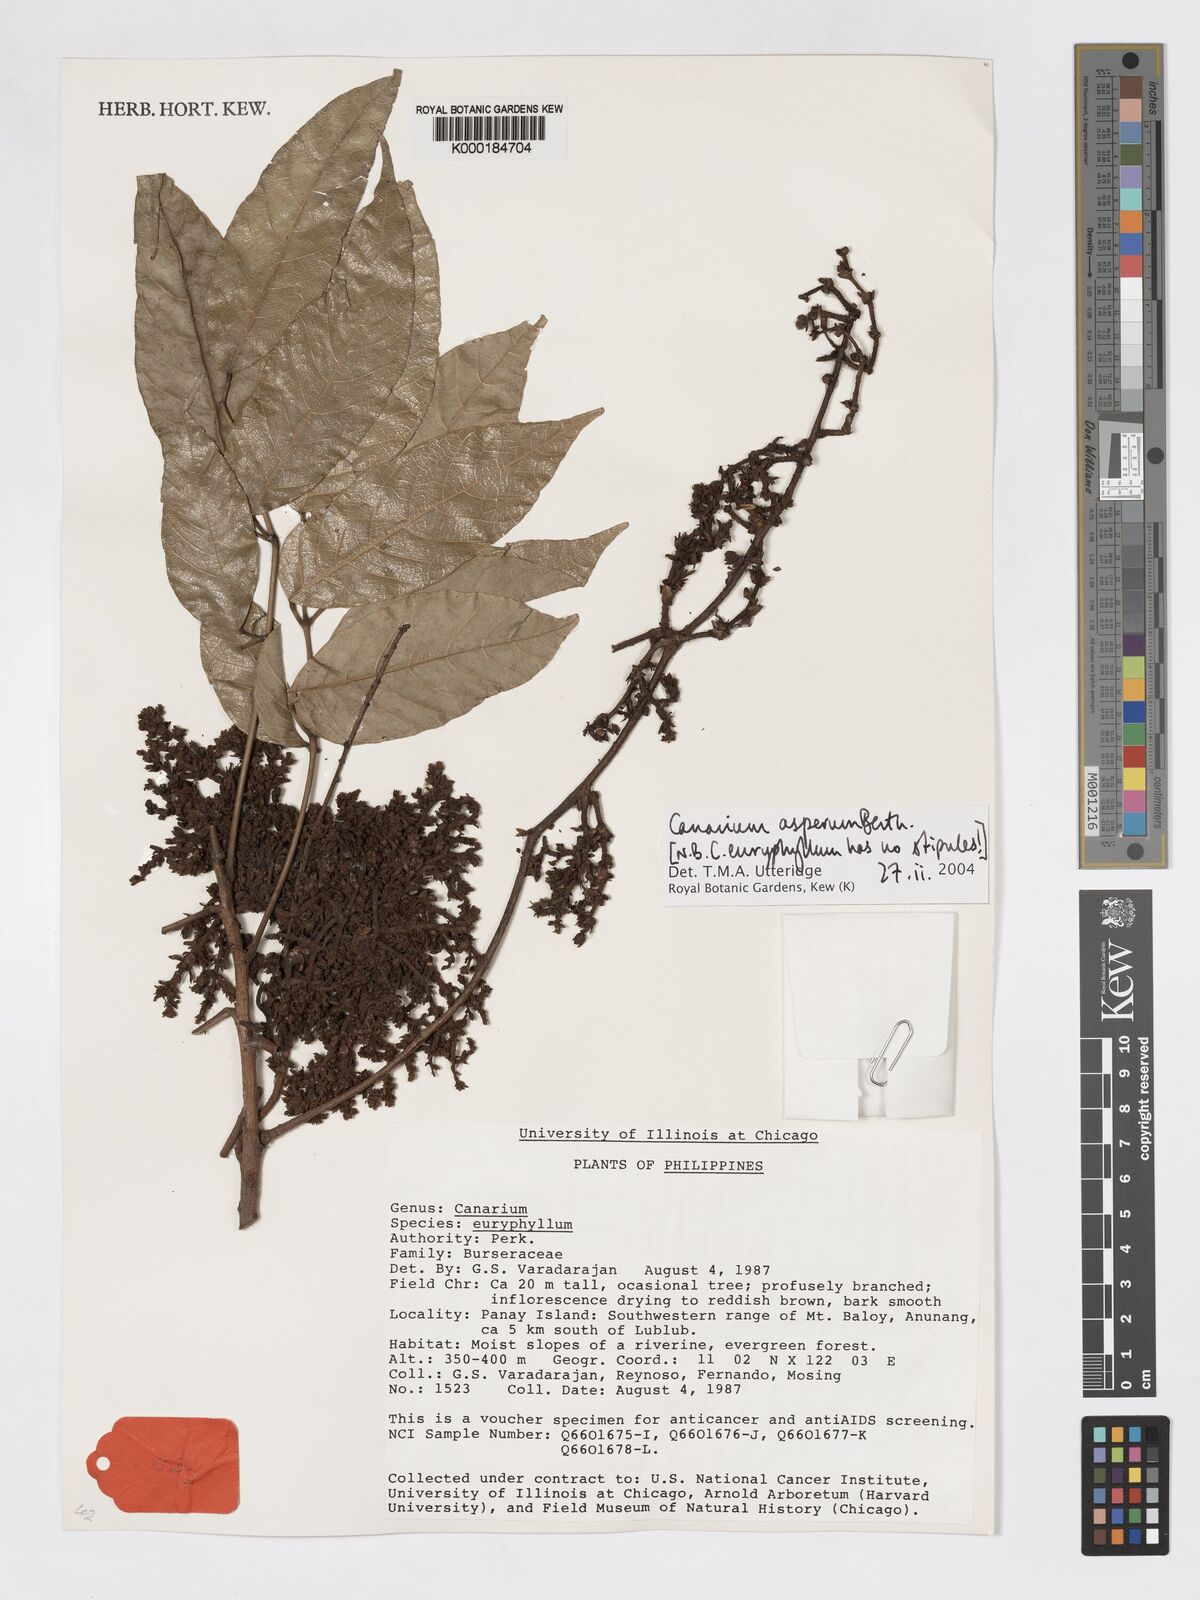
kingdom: Plantae
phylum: Tracheophyta
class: Magnoliopsida
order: Sapindales
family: Burseraceae
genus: Canarium
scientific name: Canarium asperum
